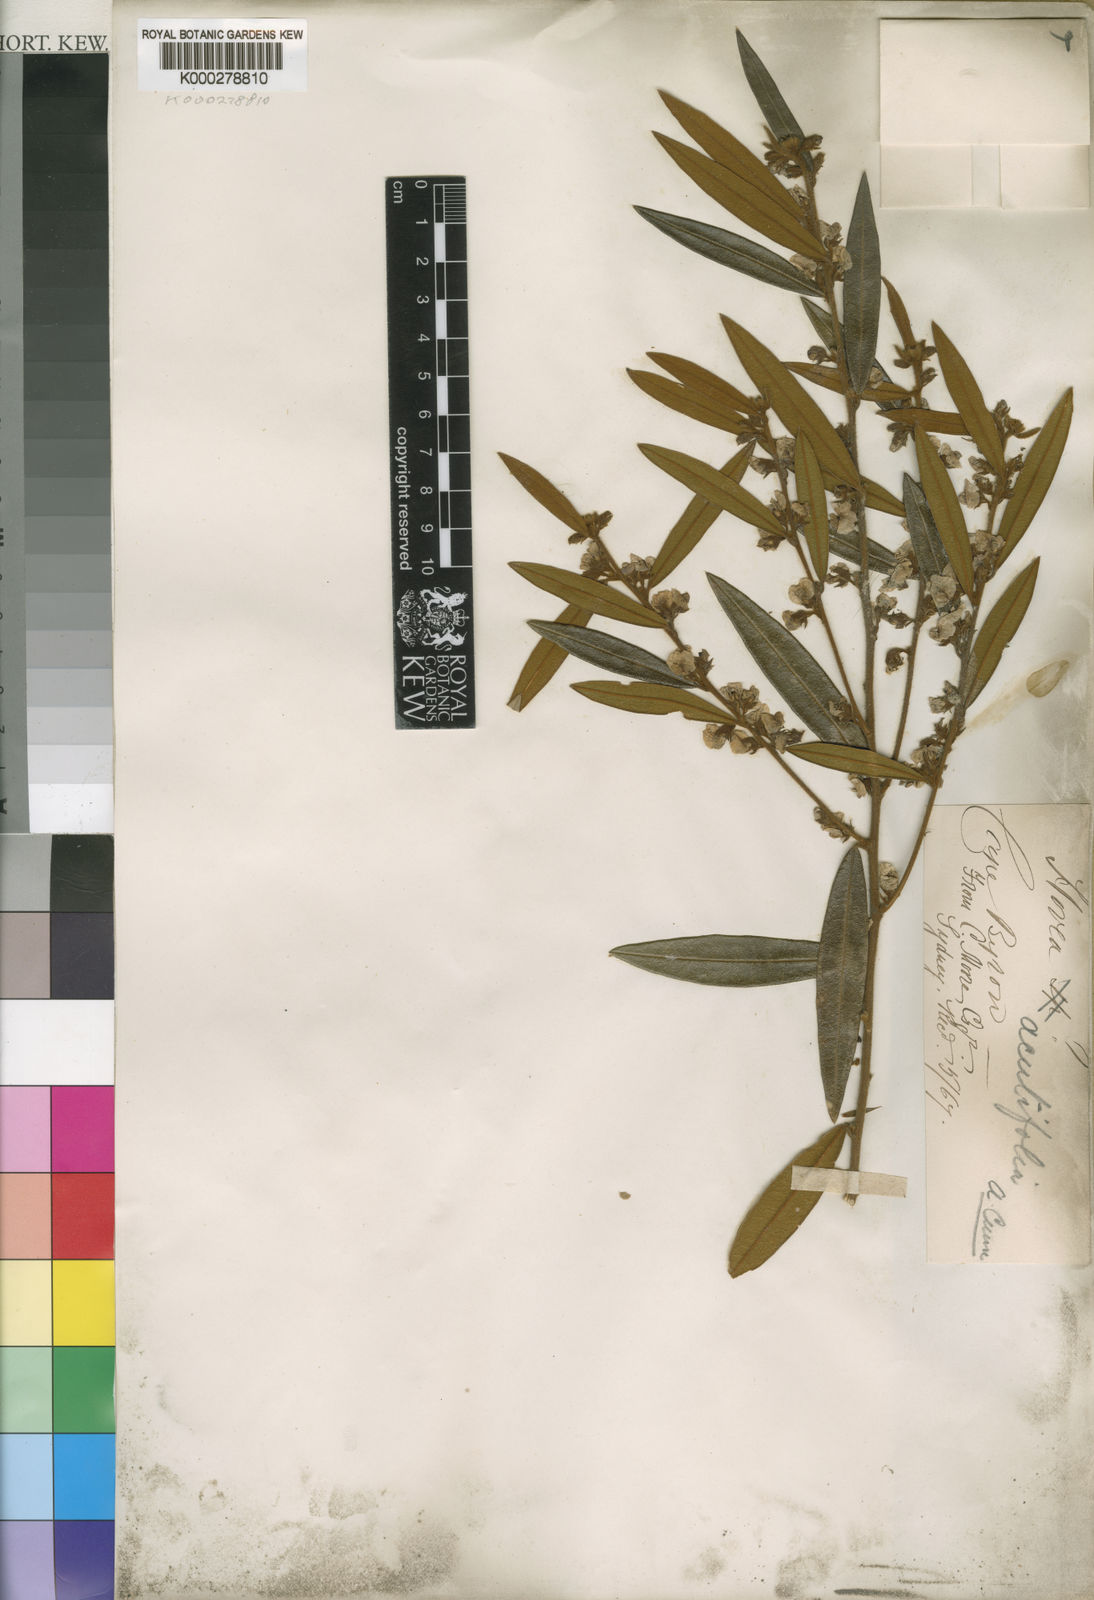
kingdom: Plantae
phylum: Tracheophyta
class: Magnoliopsida
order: Fabales
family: Fabaceae
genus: Hovea
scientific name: Hovea acutifolia
